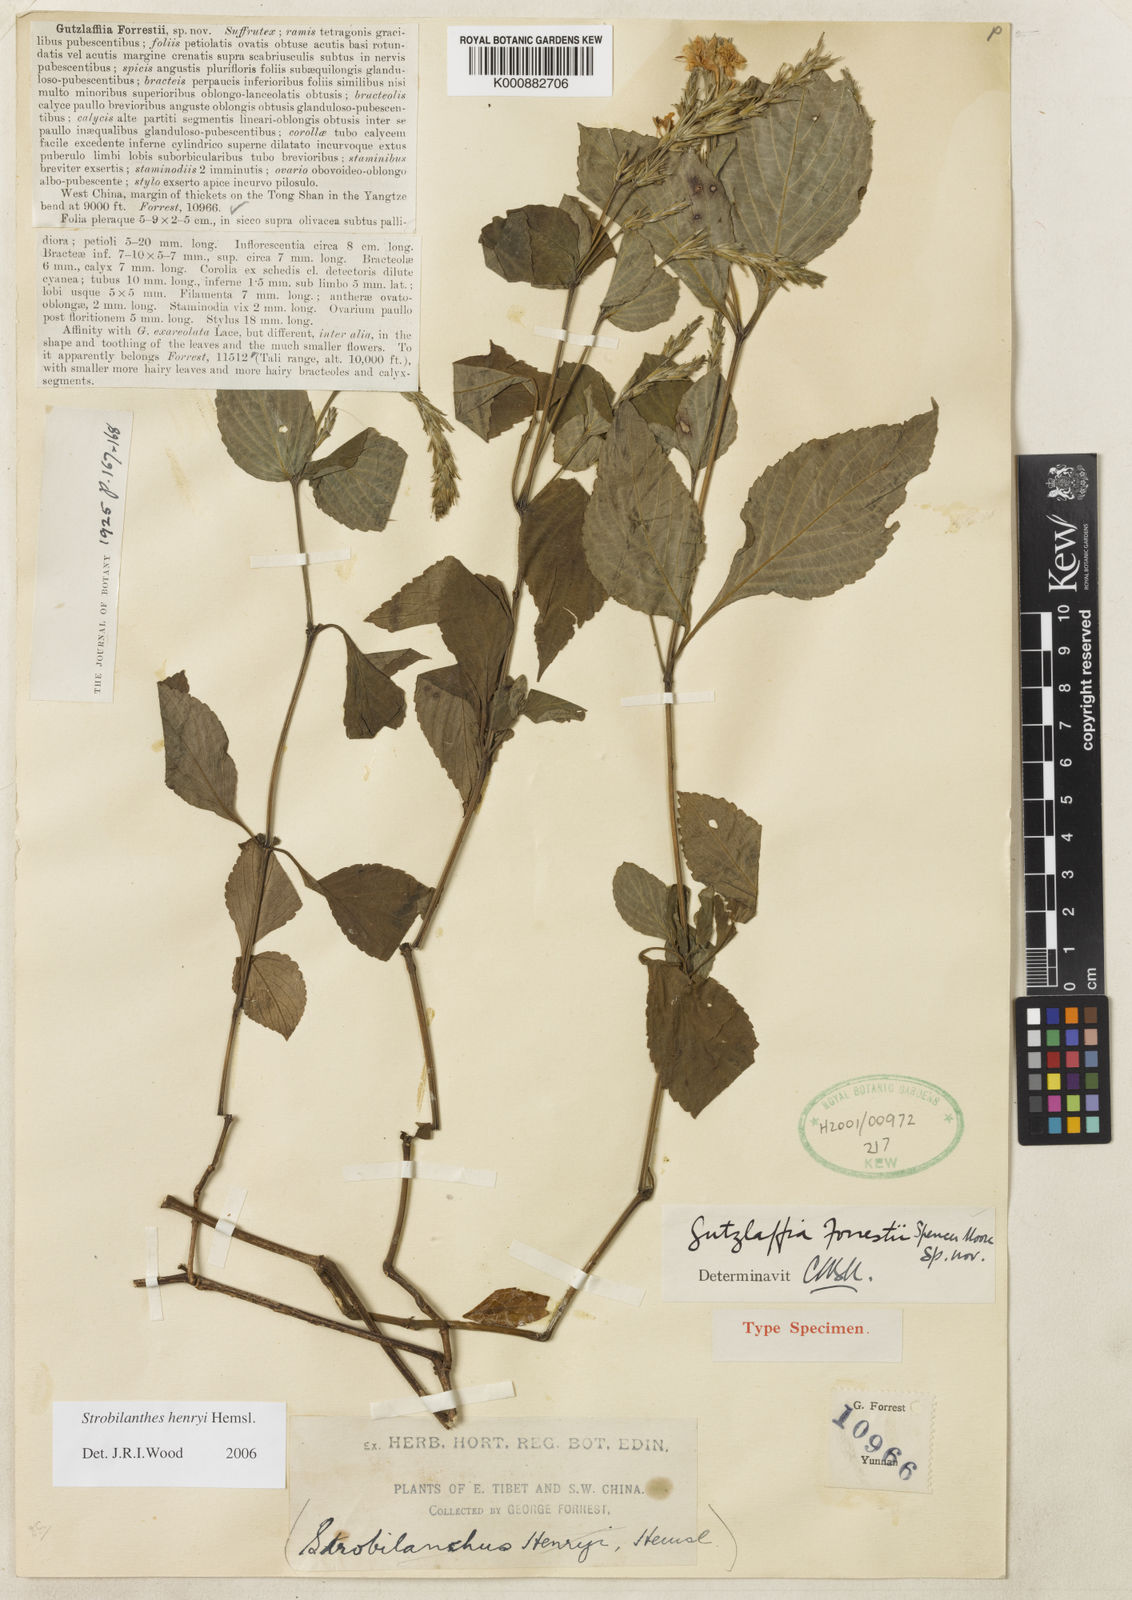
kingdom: Plantae
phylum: Tracheophyta
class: Magnoliopsida
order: Lamiales
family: Acanthaceae
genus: Strobilanthes
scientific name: Strobilanthes henryi
